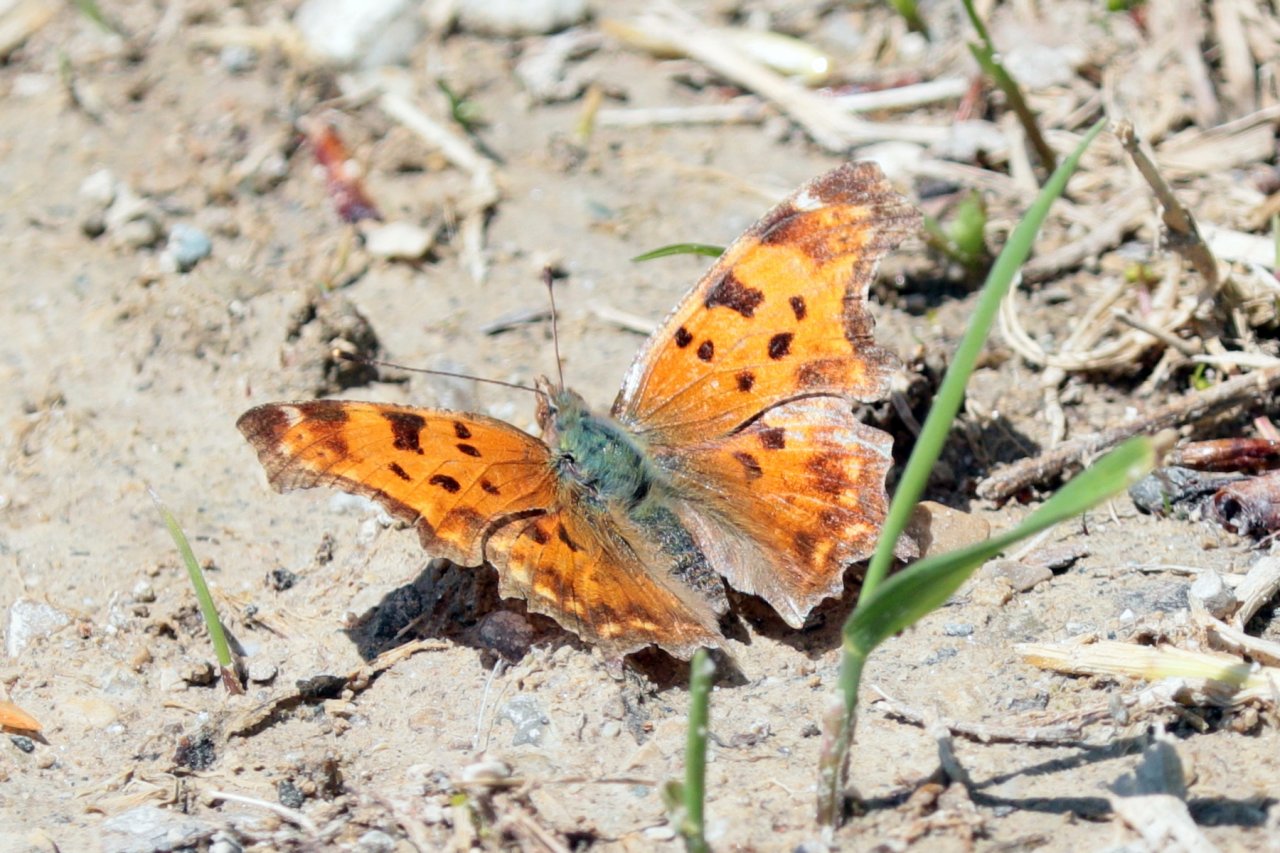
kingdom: Animalia
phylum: Arthropoda
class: Insecta
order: Lepidoptera
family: Nymphalidae
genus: Polygonia
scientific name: Polygonia comma
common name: Eastern Comma
